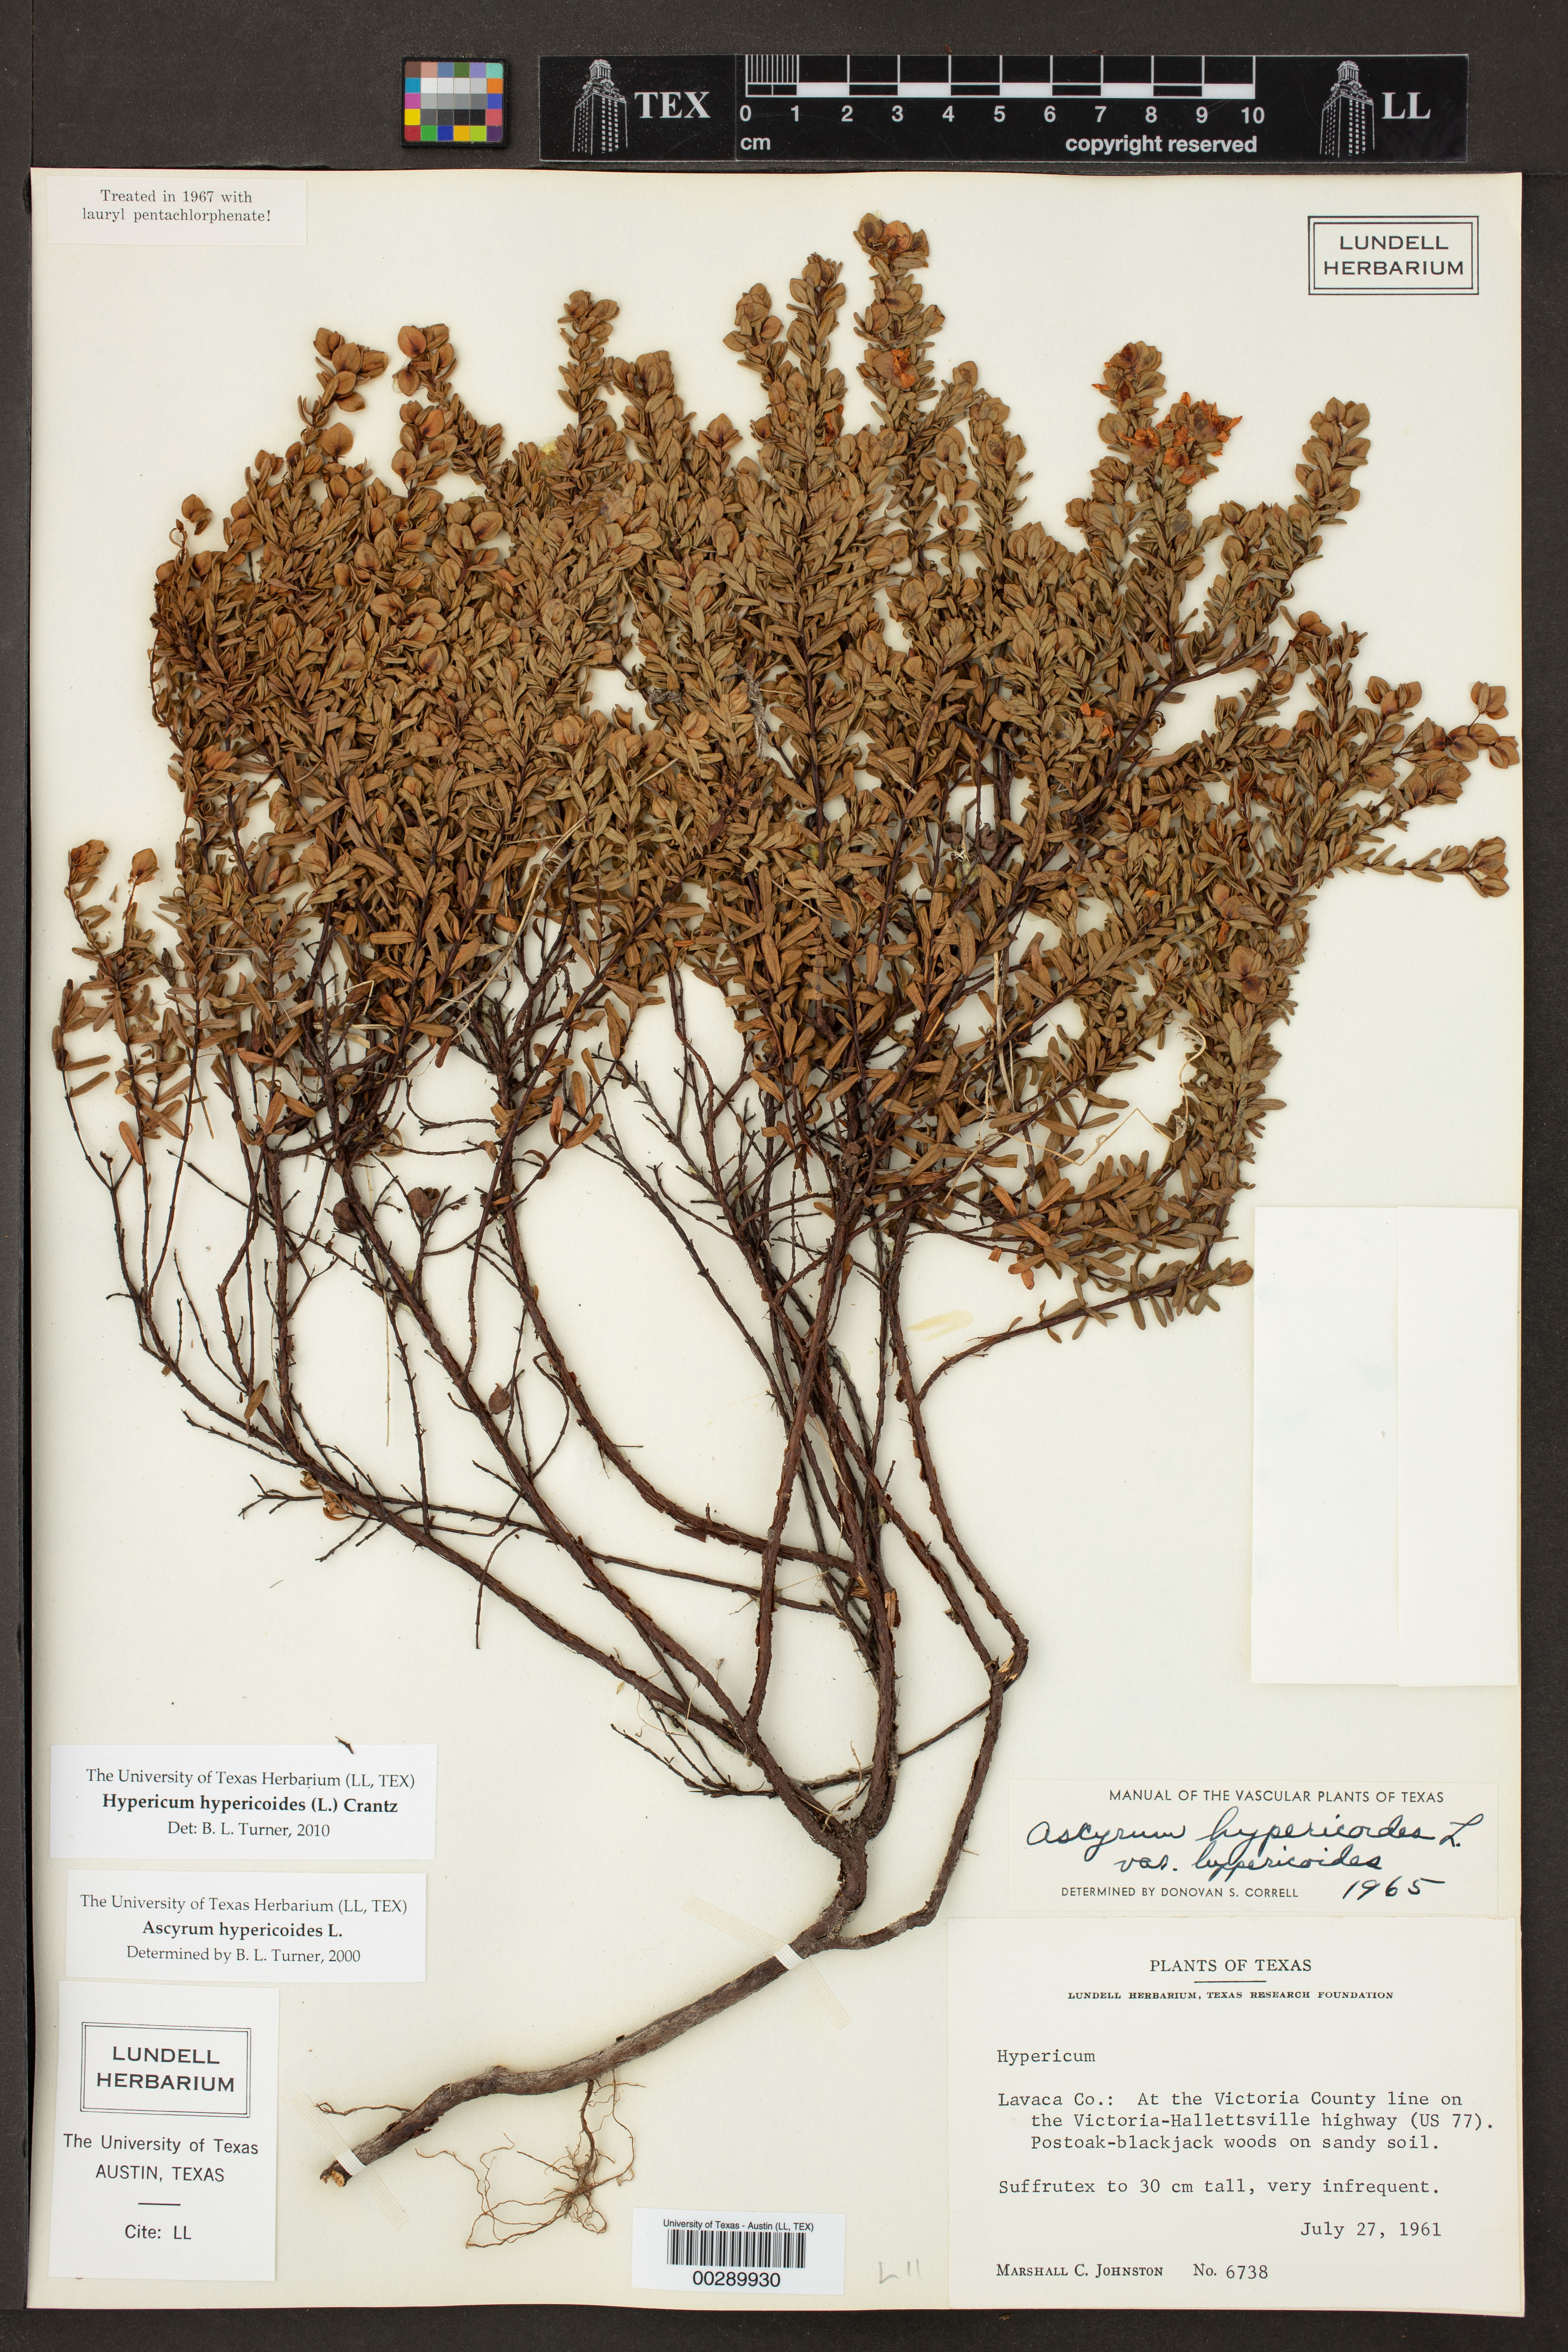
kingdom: Plantae
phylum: Tracheophyta
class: Magnoliopsida
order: Malpighiales
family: Hypericaceae
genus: Hypericum
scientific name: Hypericum hypericoides
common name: St. andrew's cross
